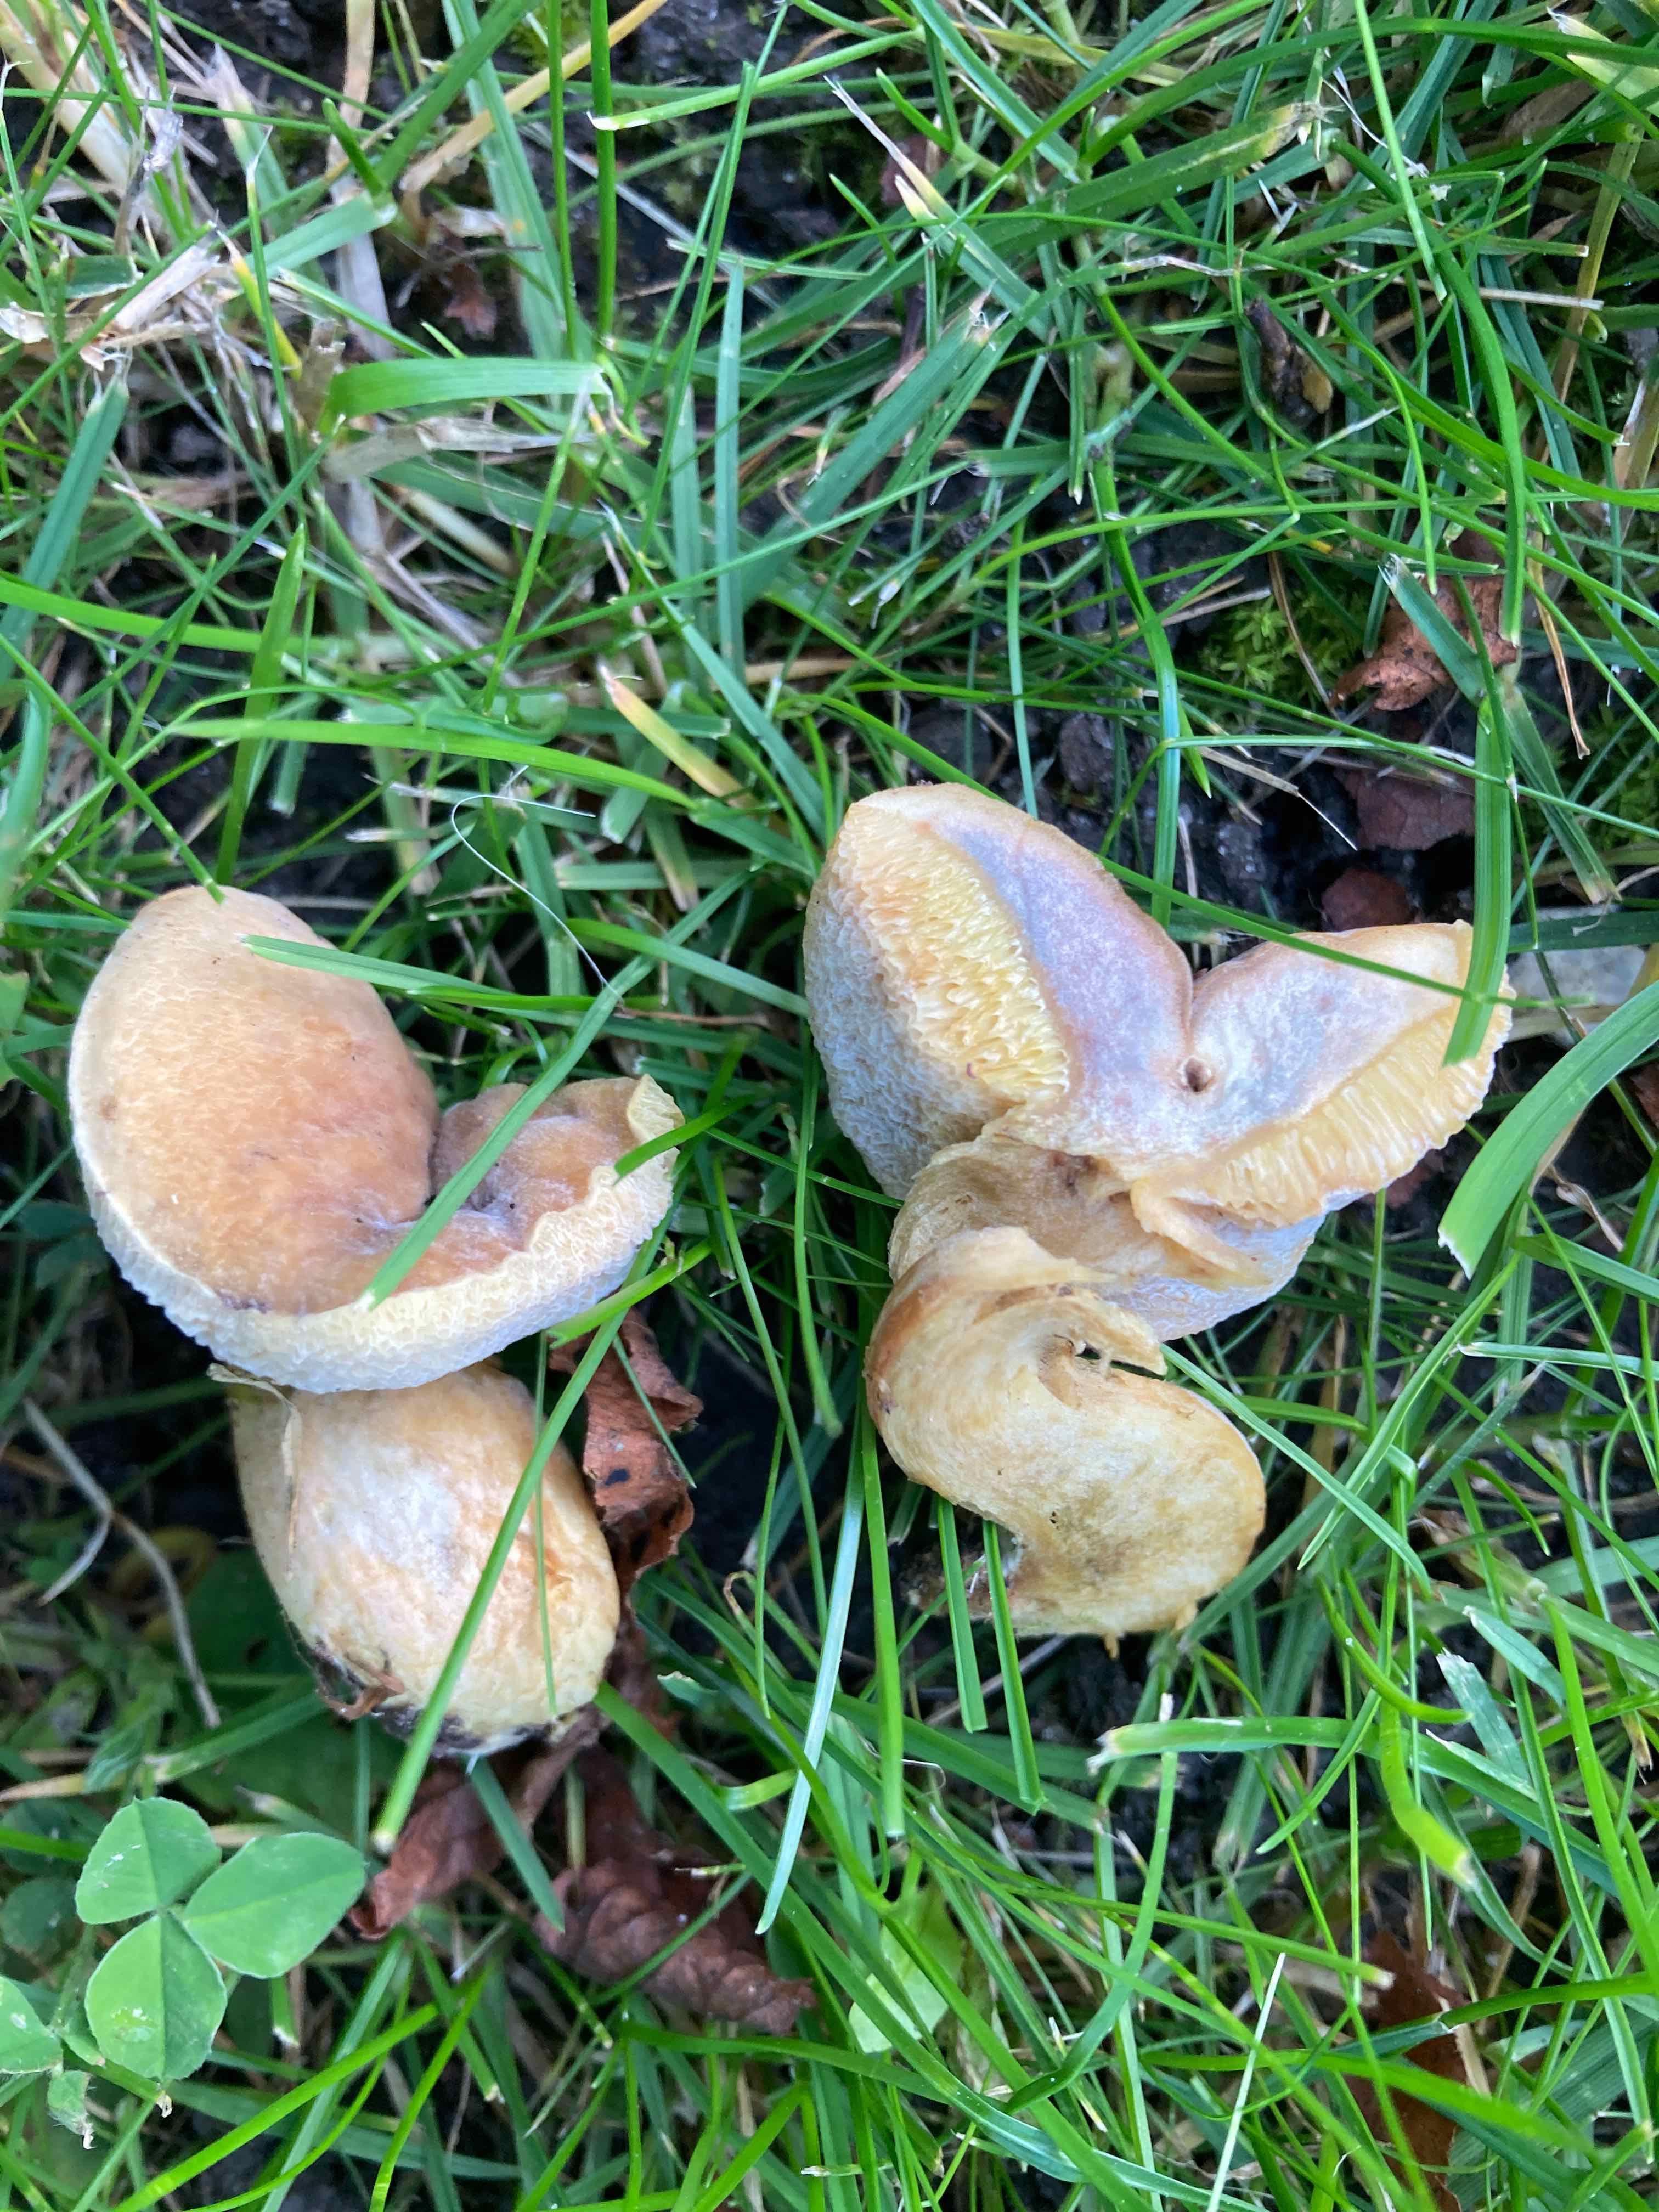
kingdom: Fungi
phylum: Basidiomycota
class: Agaricomycetes
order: Boletales
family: Boletaceae
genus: Hortiboletus
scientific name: Hortiboletus bubalinus
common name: aurora-rørhat
